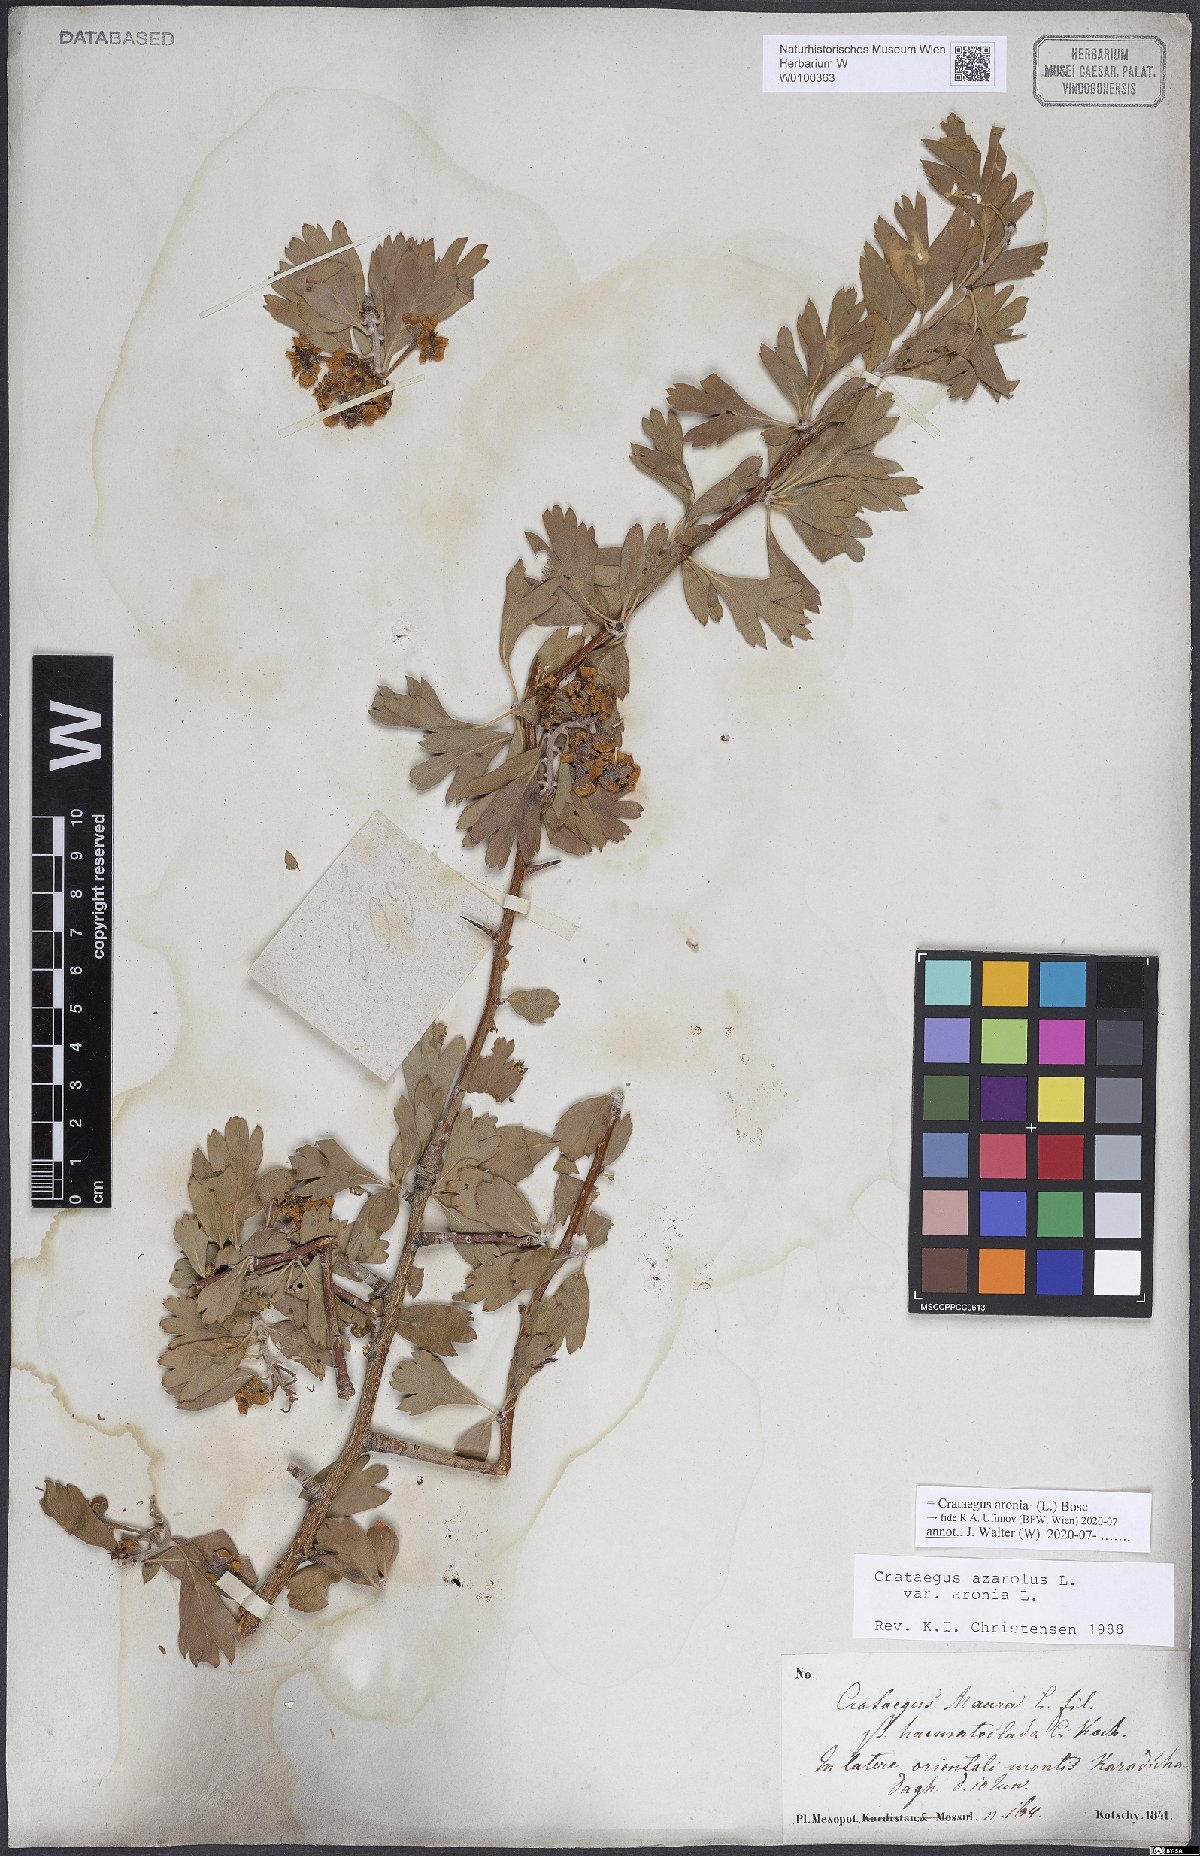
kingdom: Plantae
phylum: Tracheophyta
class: Magnoliopsida
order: Rosales
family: Rosaceae
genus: Crataegus
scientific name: Crataegus azarolus
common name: Azarole
